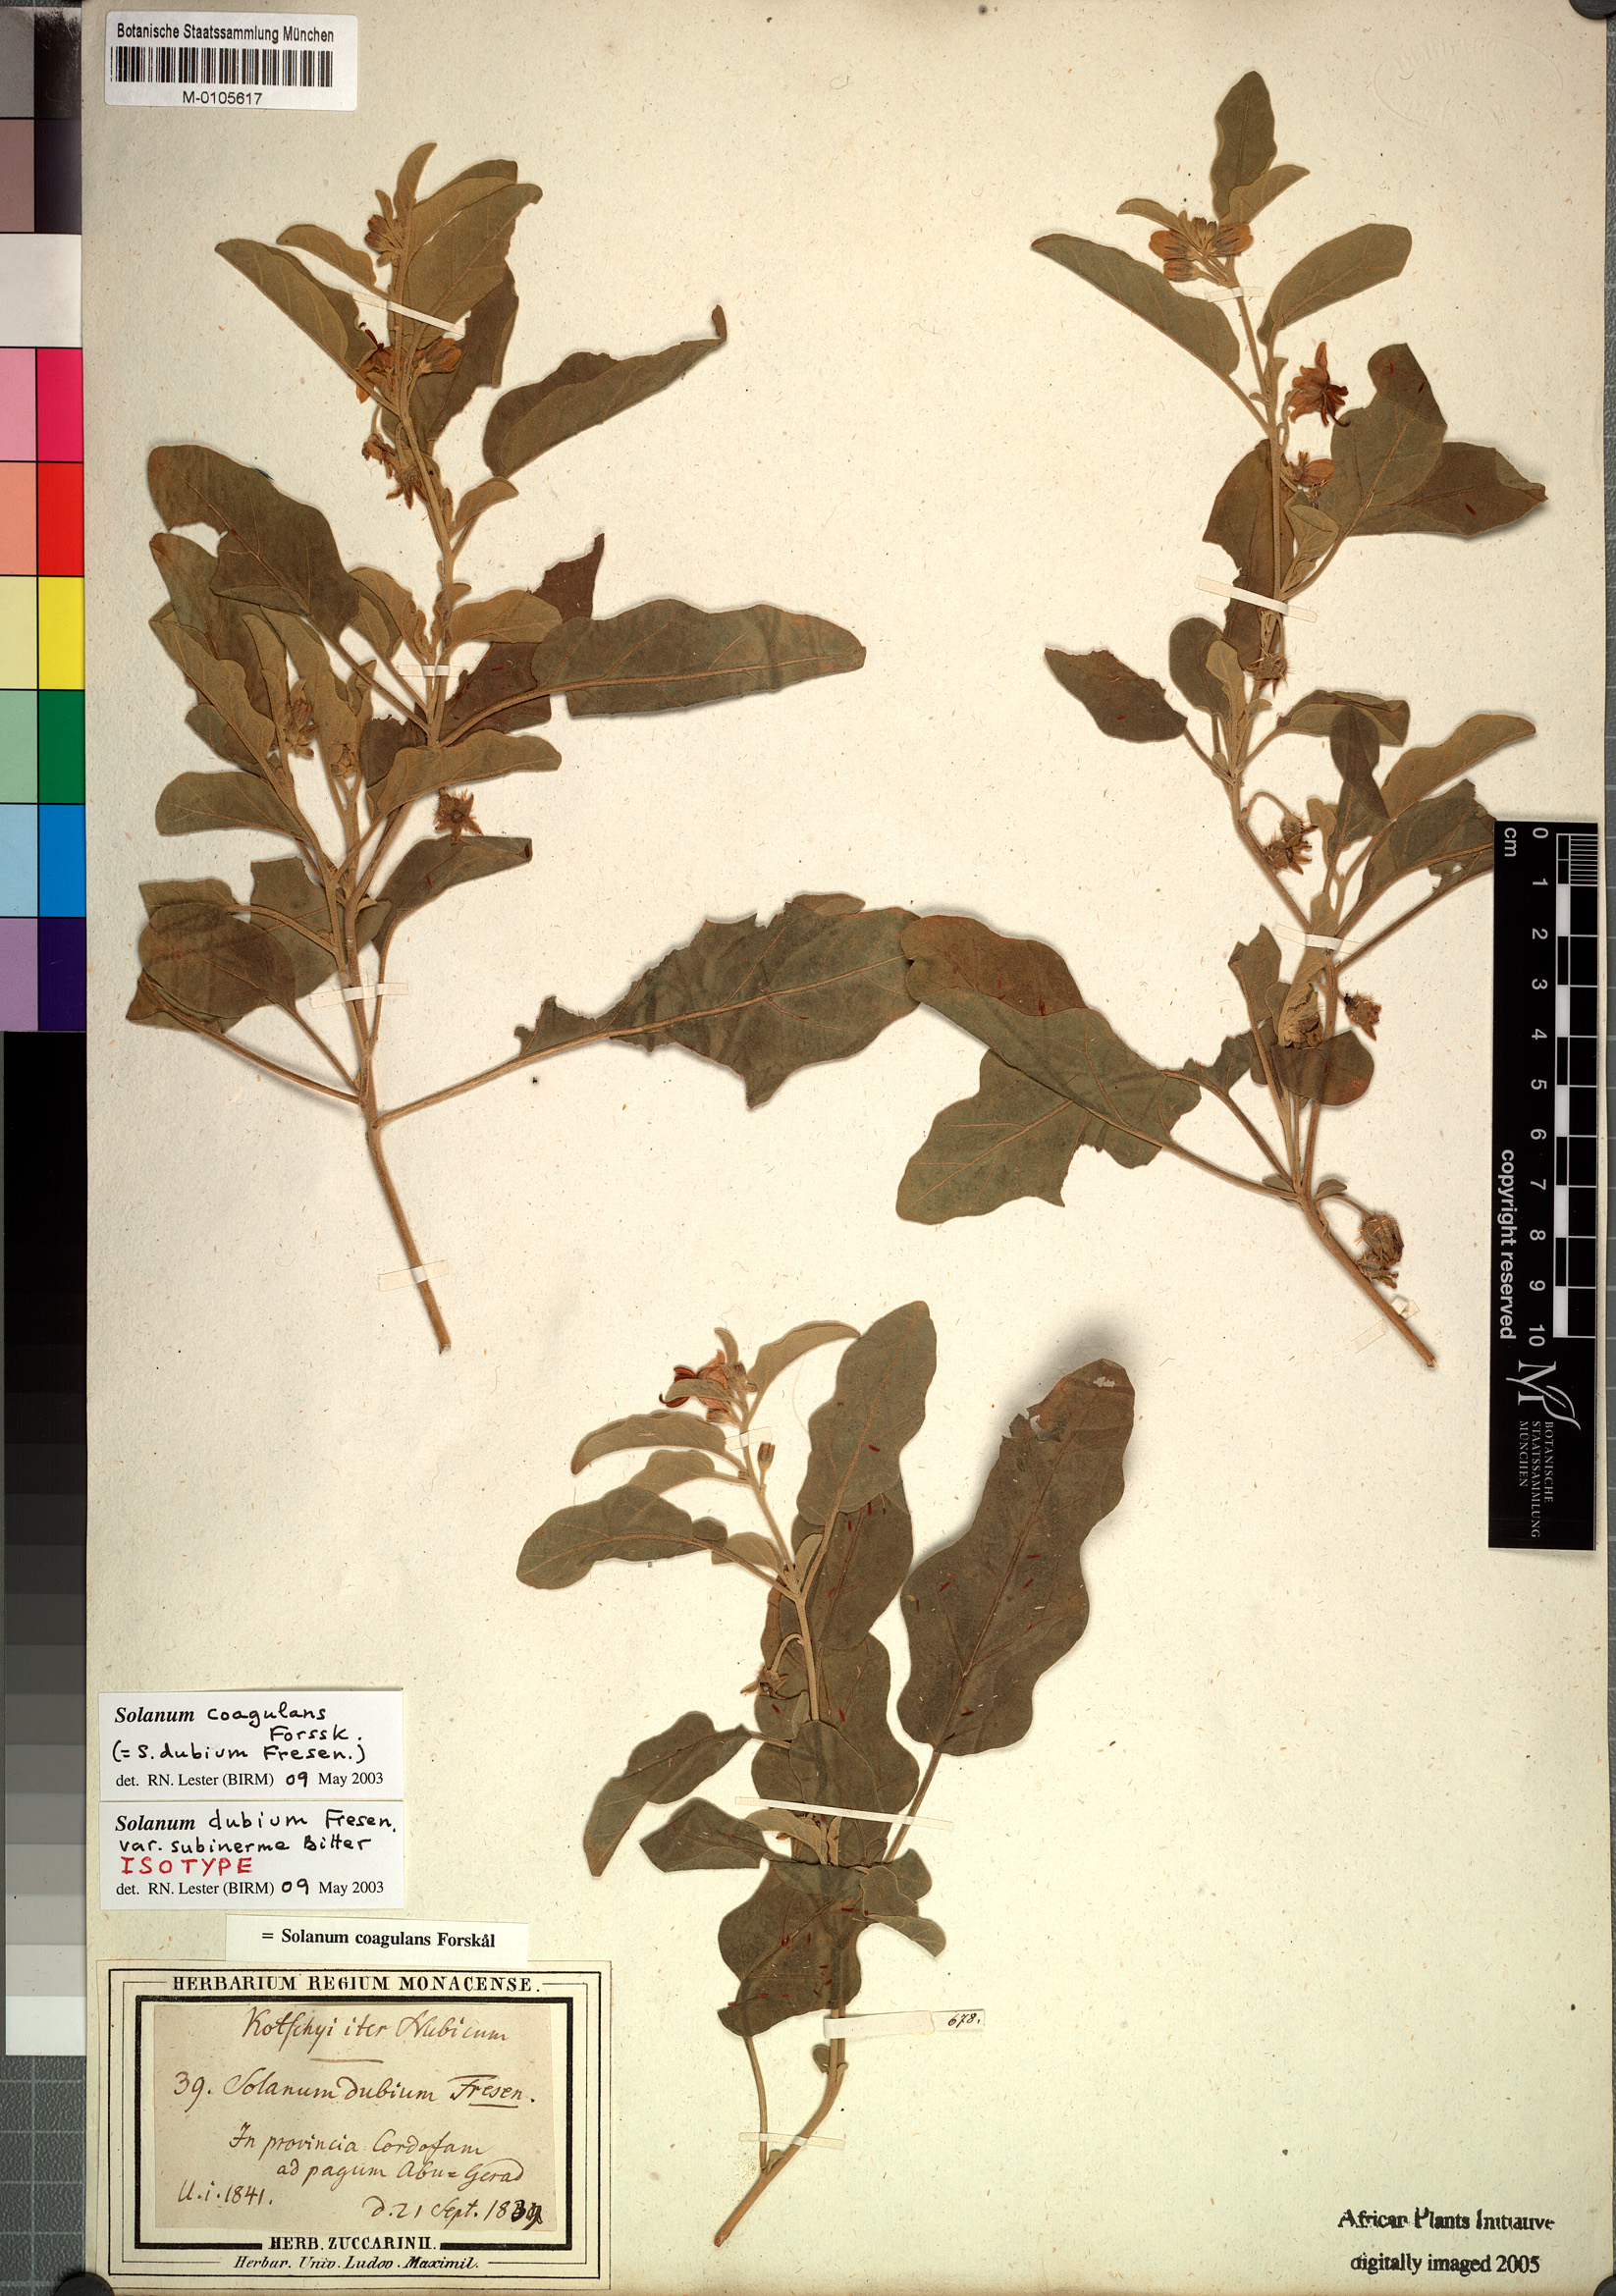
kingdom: Plantae
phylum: Tracheophyta
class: Magnoliopsida
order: Solanales
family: Solanaceae
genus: Solanum
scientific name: Solanum coagulans
